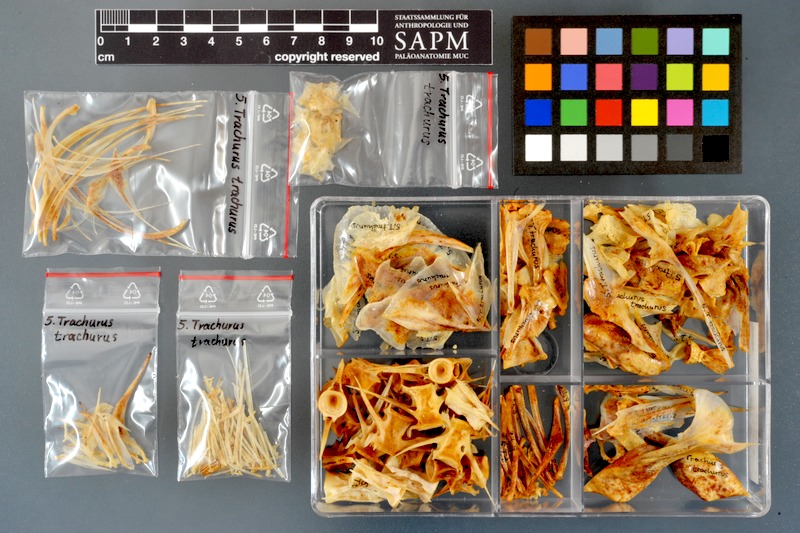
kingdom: Animalia
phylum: Chordata
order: Perciformes
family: Carangidae
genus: Trachurus
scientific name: Trachurus trachurus
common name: Horse mackerel
